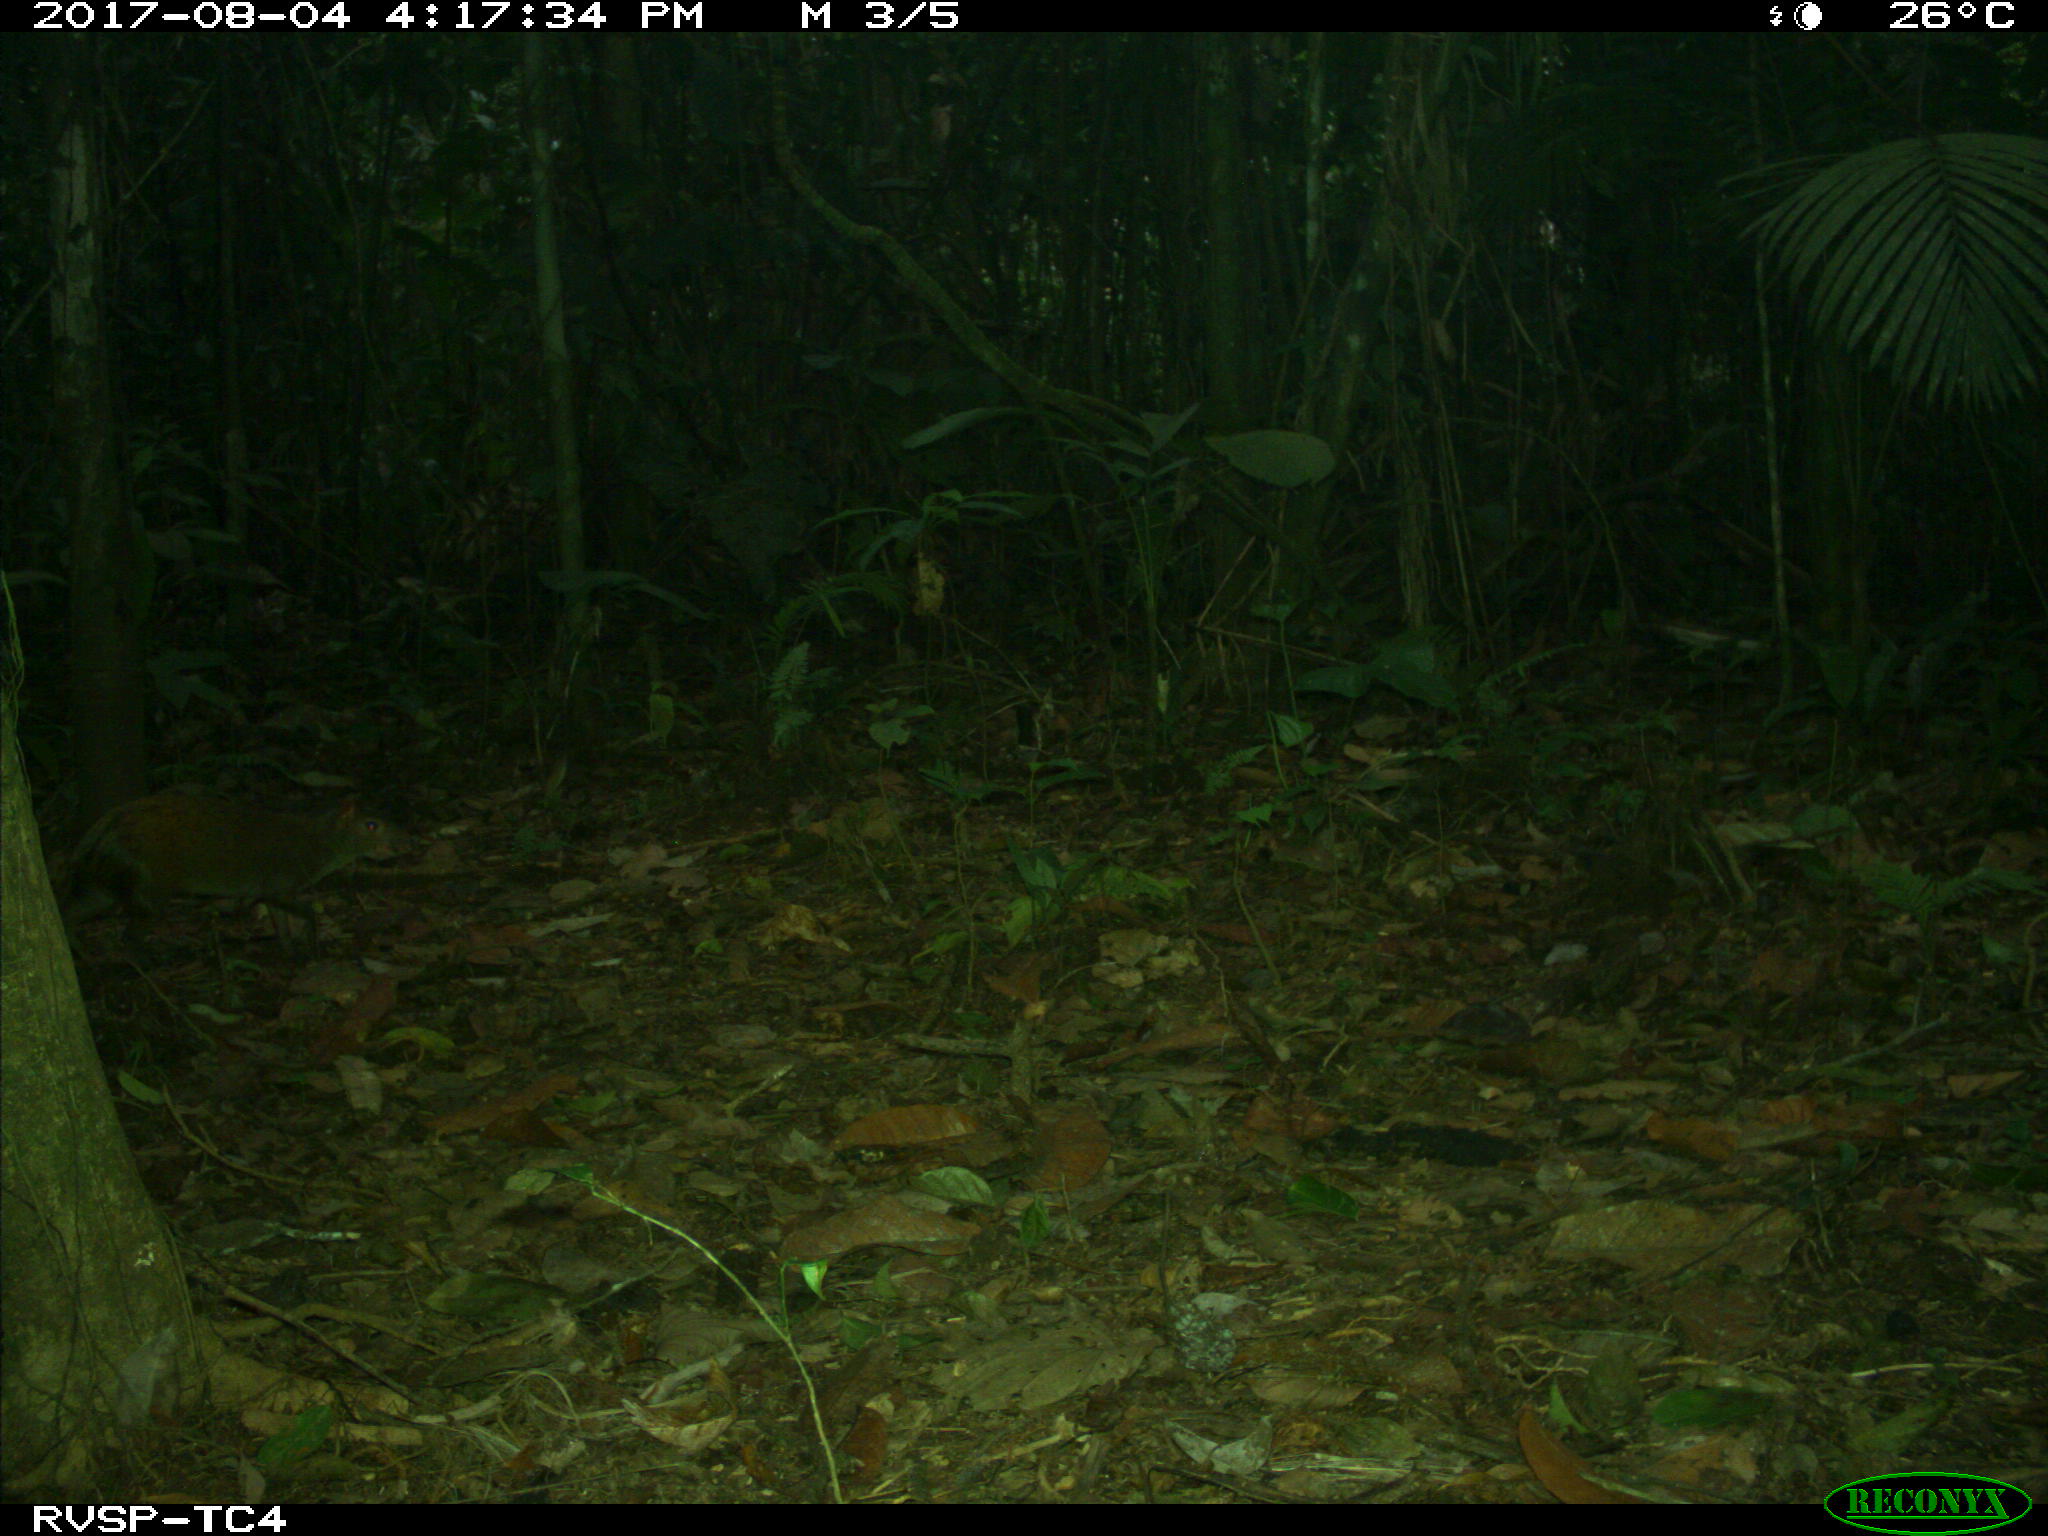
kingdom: Animalia
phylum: Chordata
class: Mammalia
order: Rodentia
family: Dasyproctidae
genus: Dasyprocta
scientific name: Dasyprocta punctata
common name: Central american agouti
